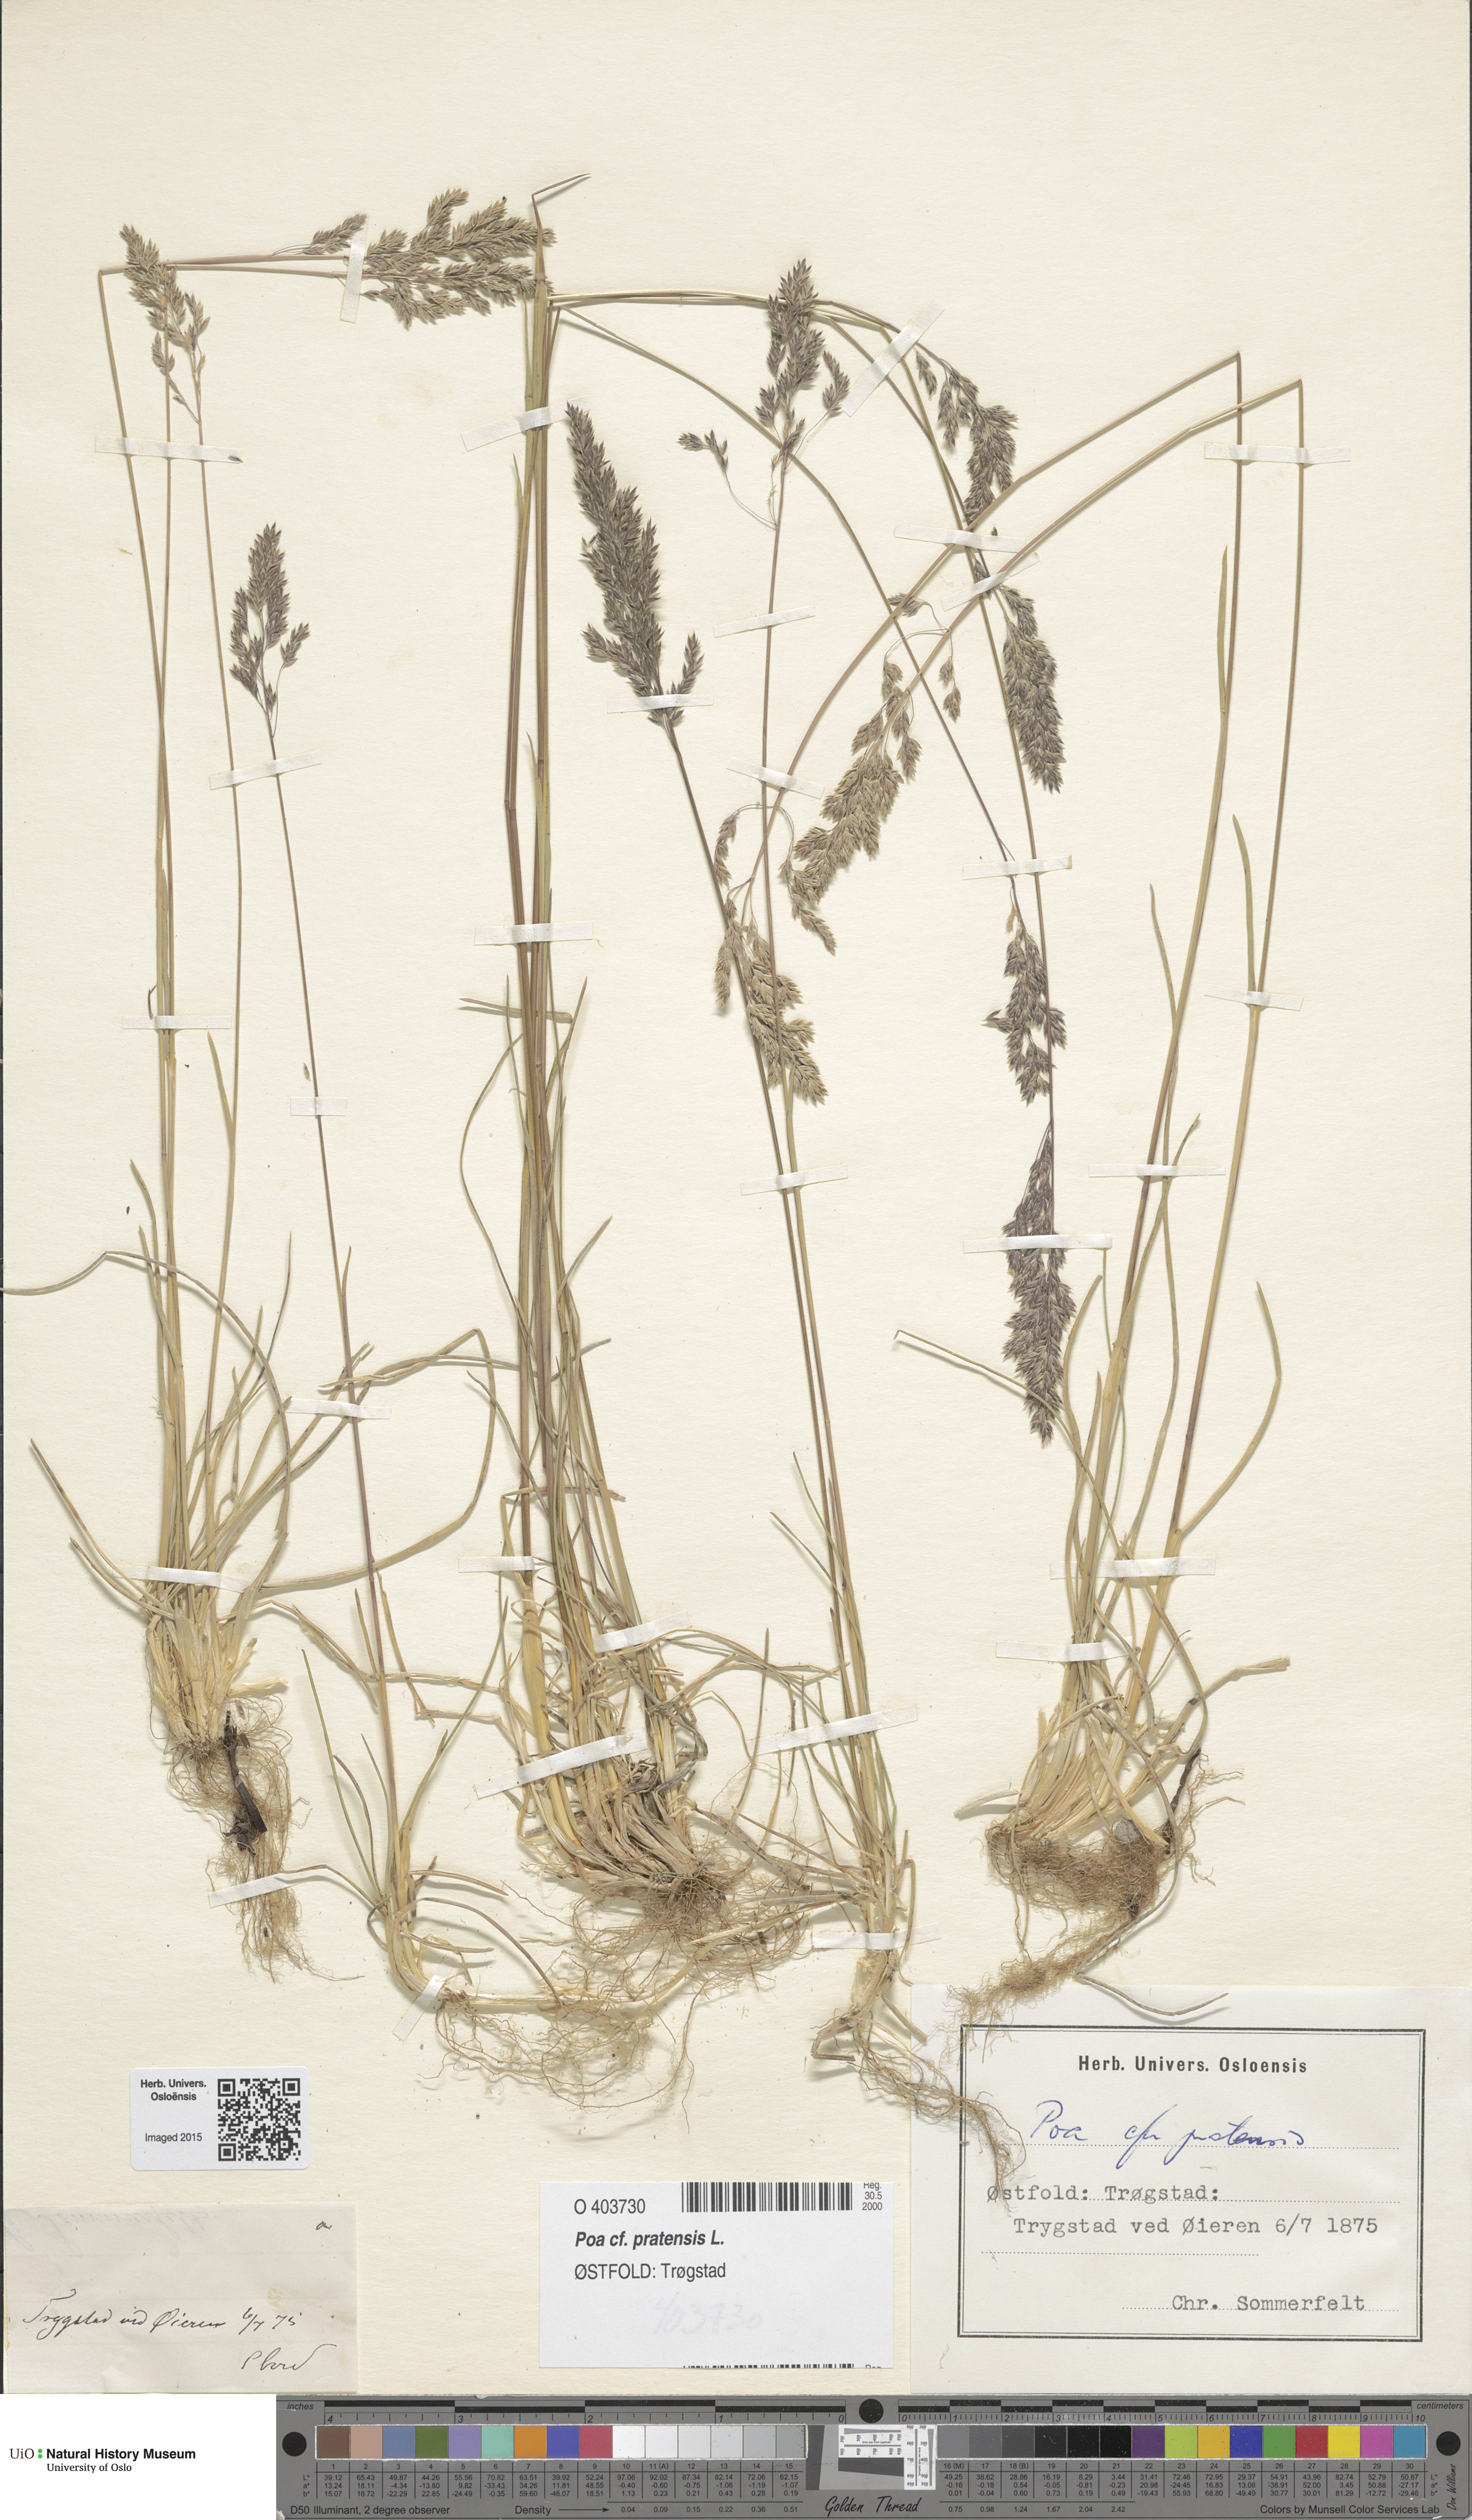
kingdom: Plantae
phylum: Tracheophyta
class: Liliopsida
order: Poales
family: Poaceae
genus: Poa
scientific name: Poa pratensis
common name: Kentucky bluegrass
